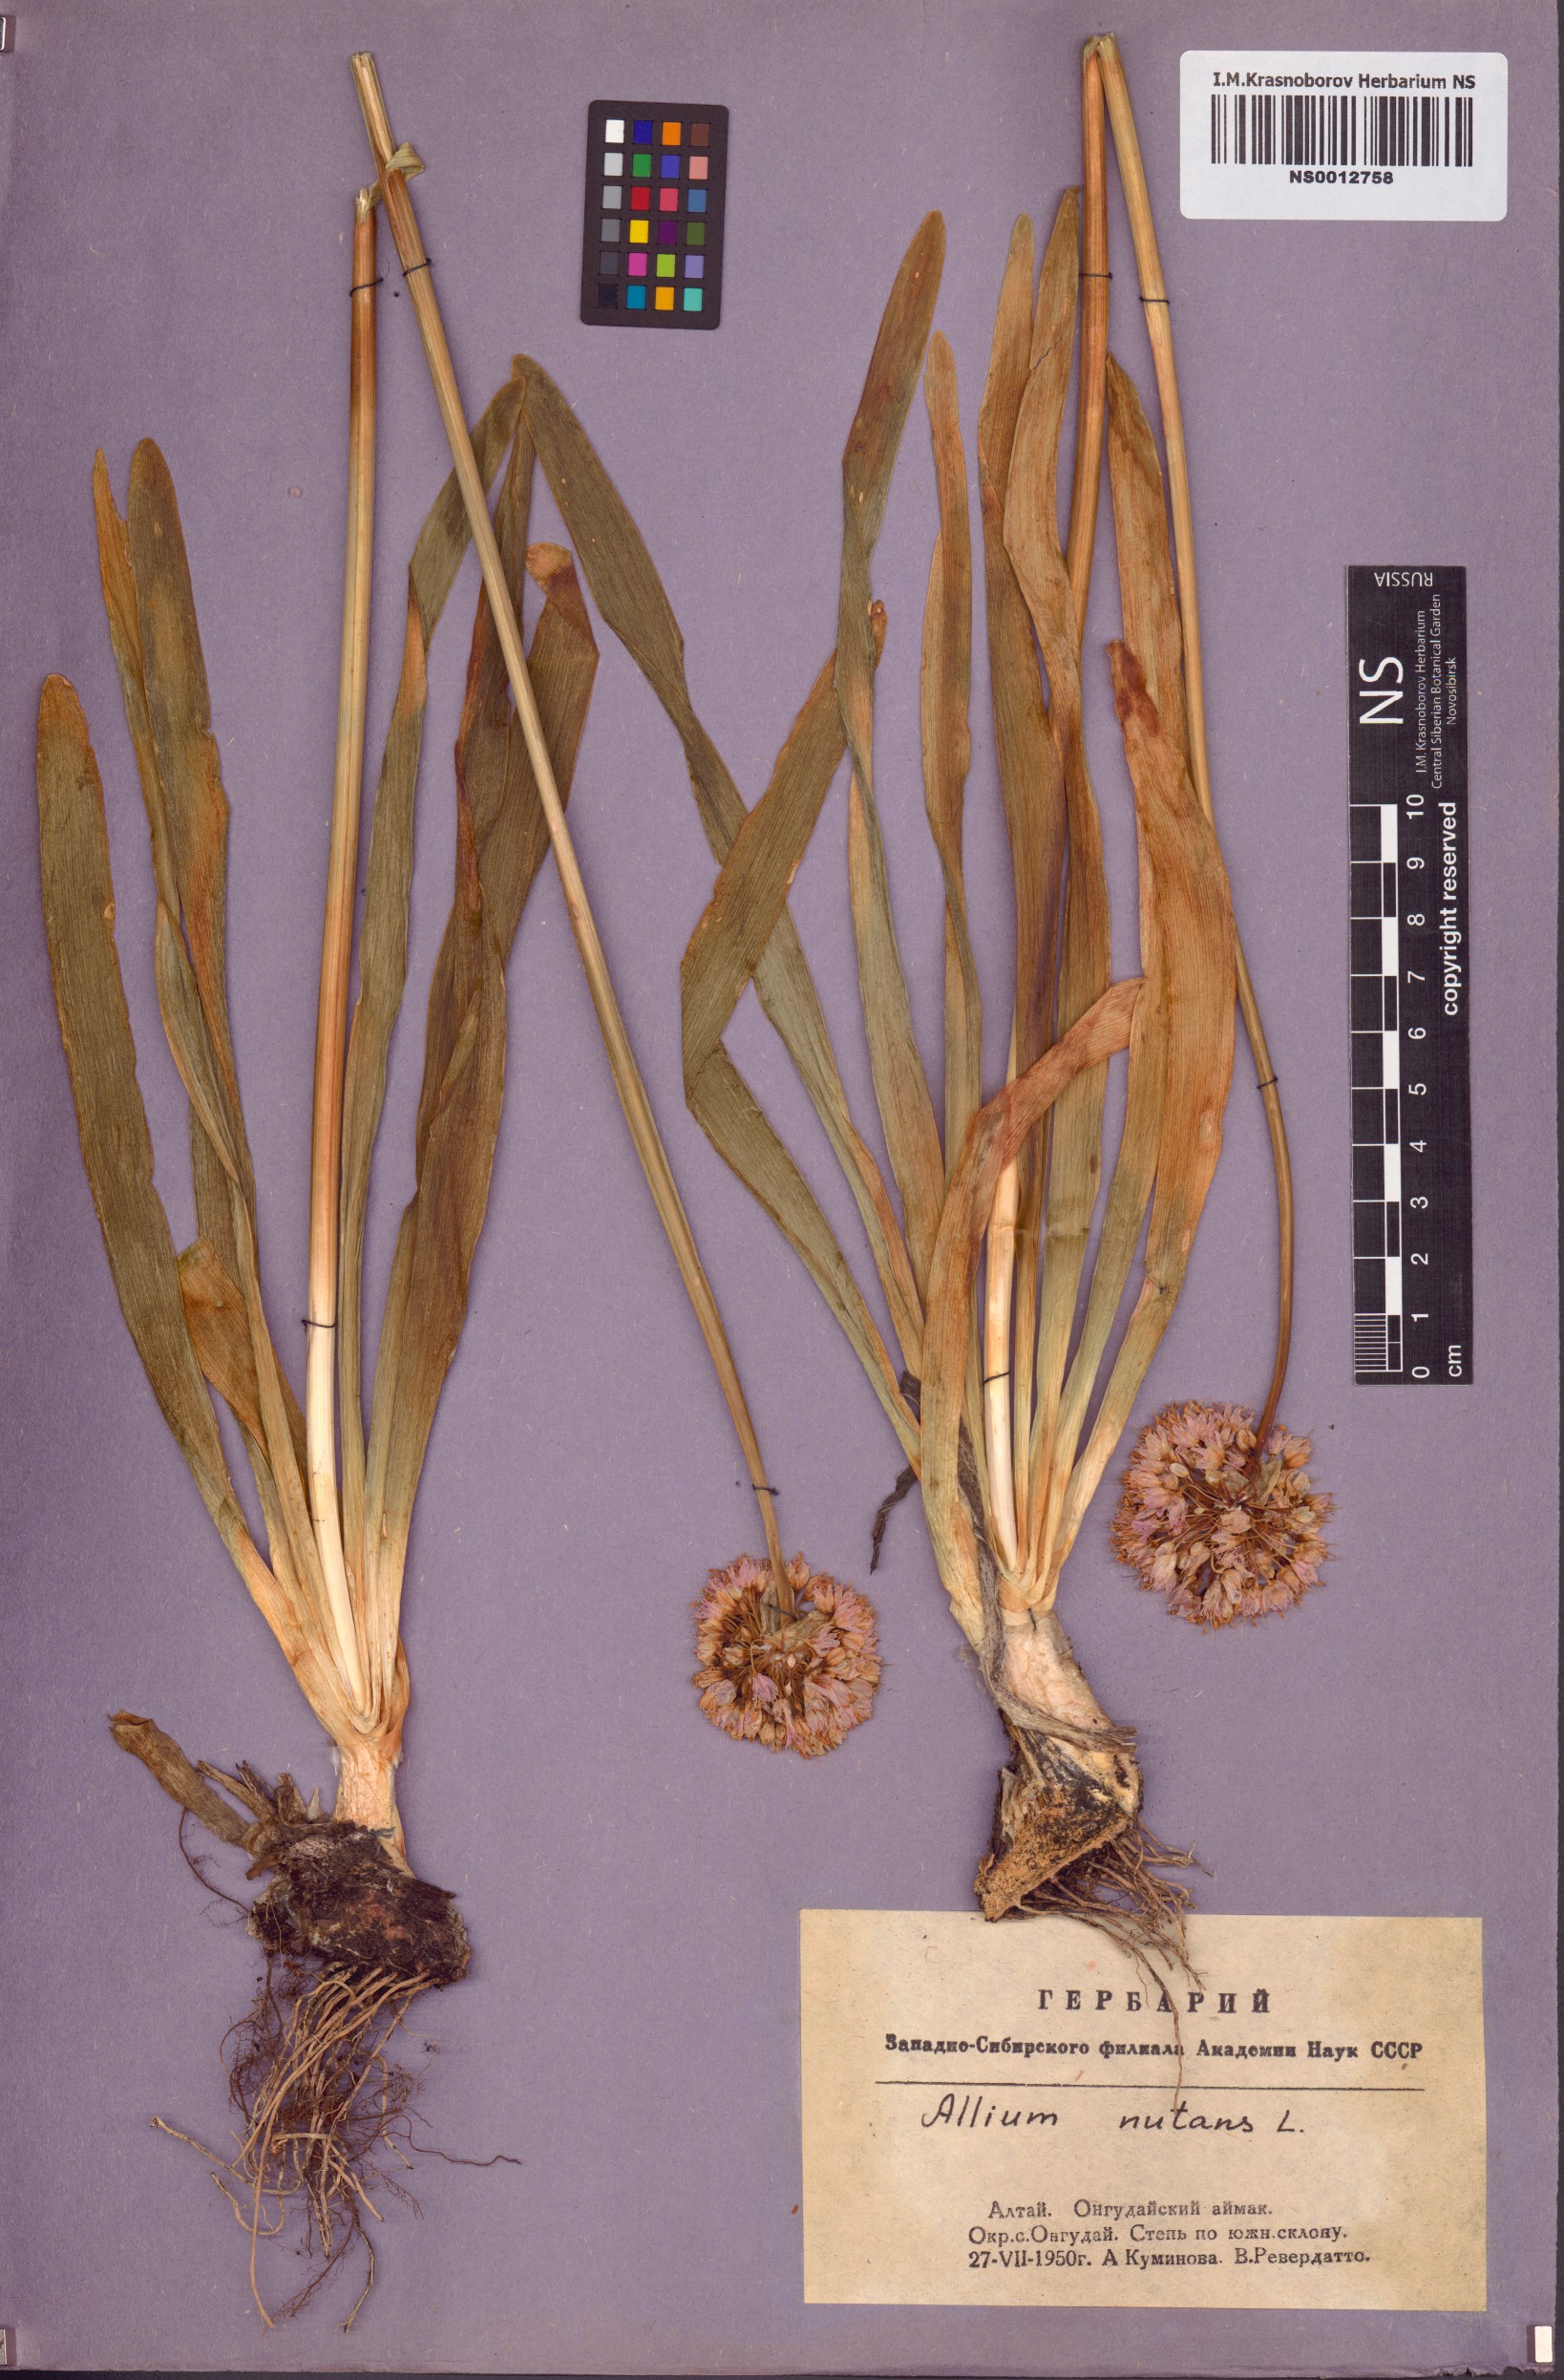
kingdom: Plantae
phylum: Tracheophyta
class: Liliopsida
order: Asparagales
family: Amaryllidaceae
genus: Allium
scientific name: Allium nutans
